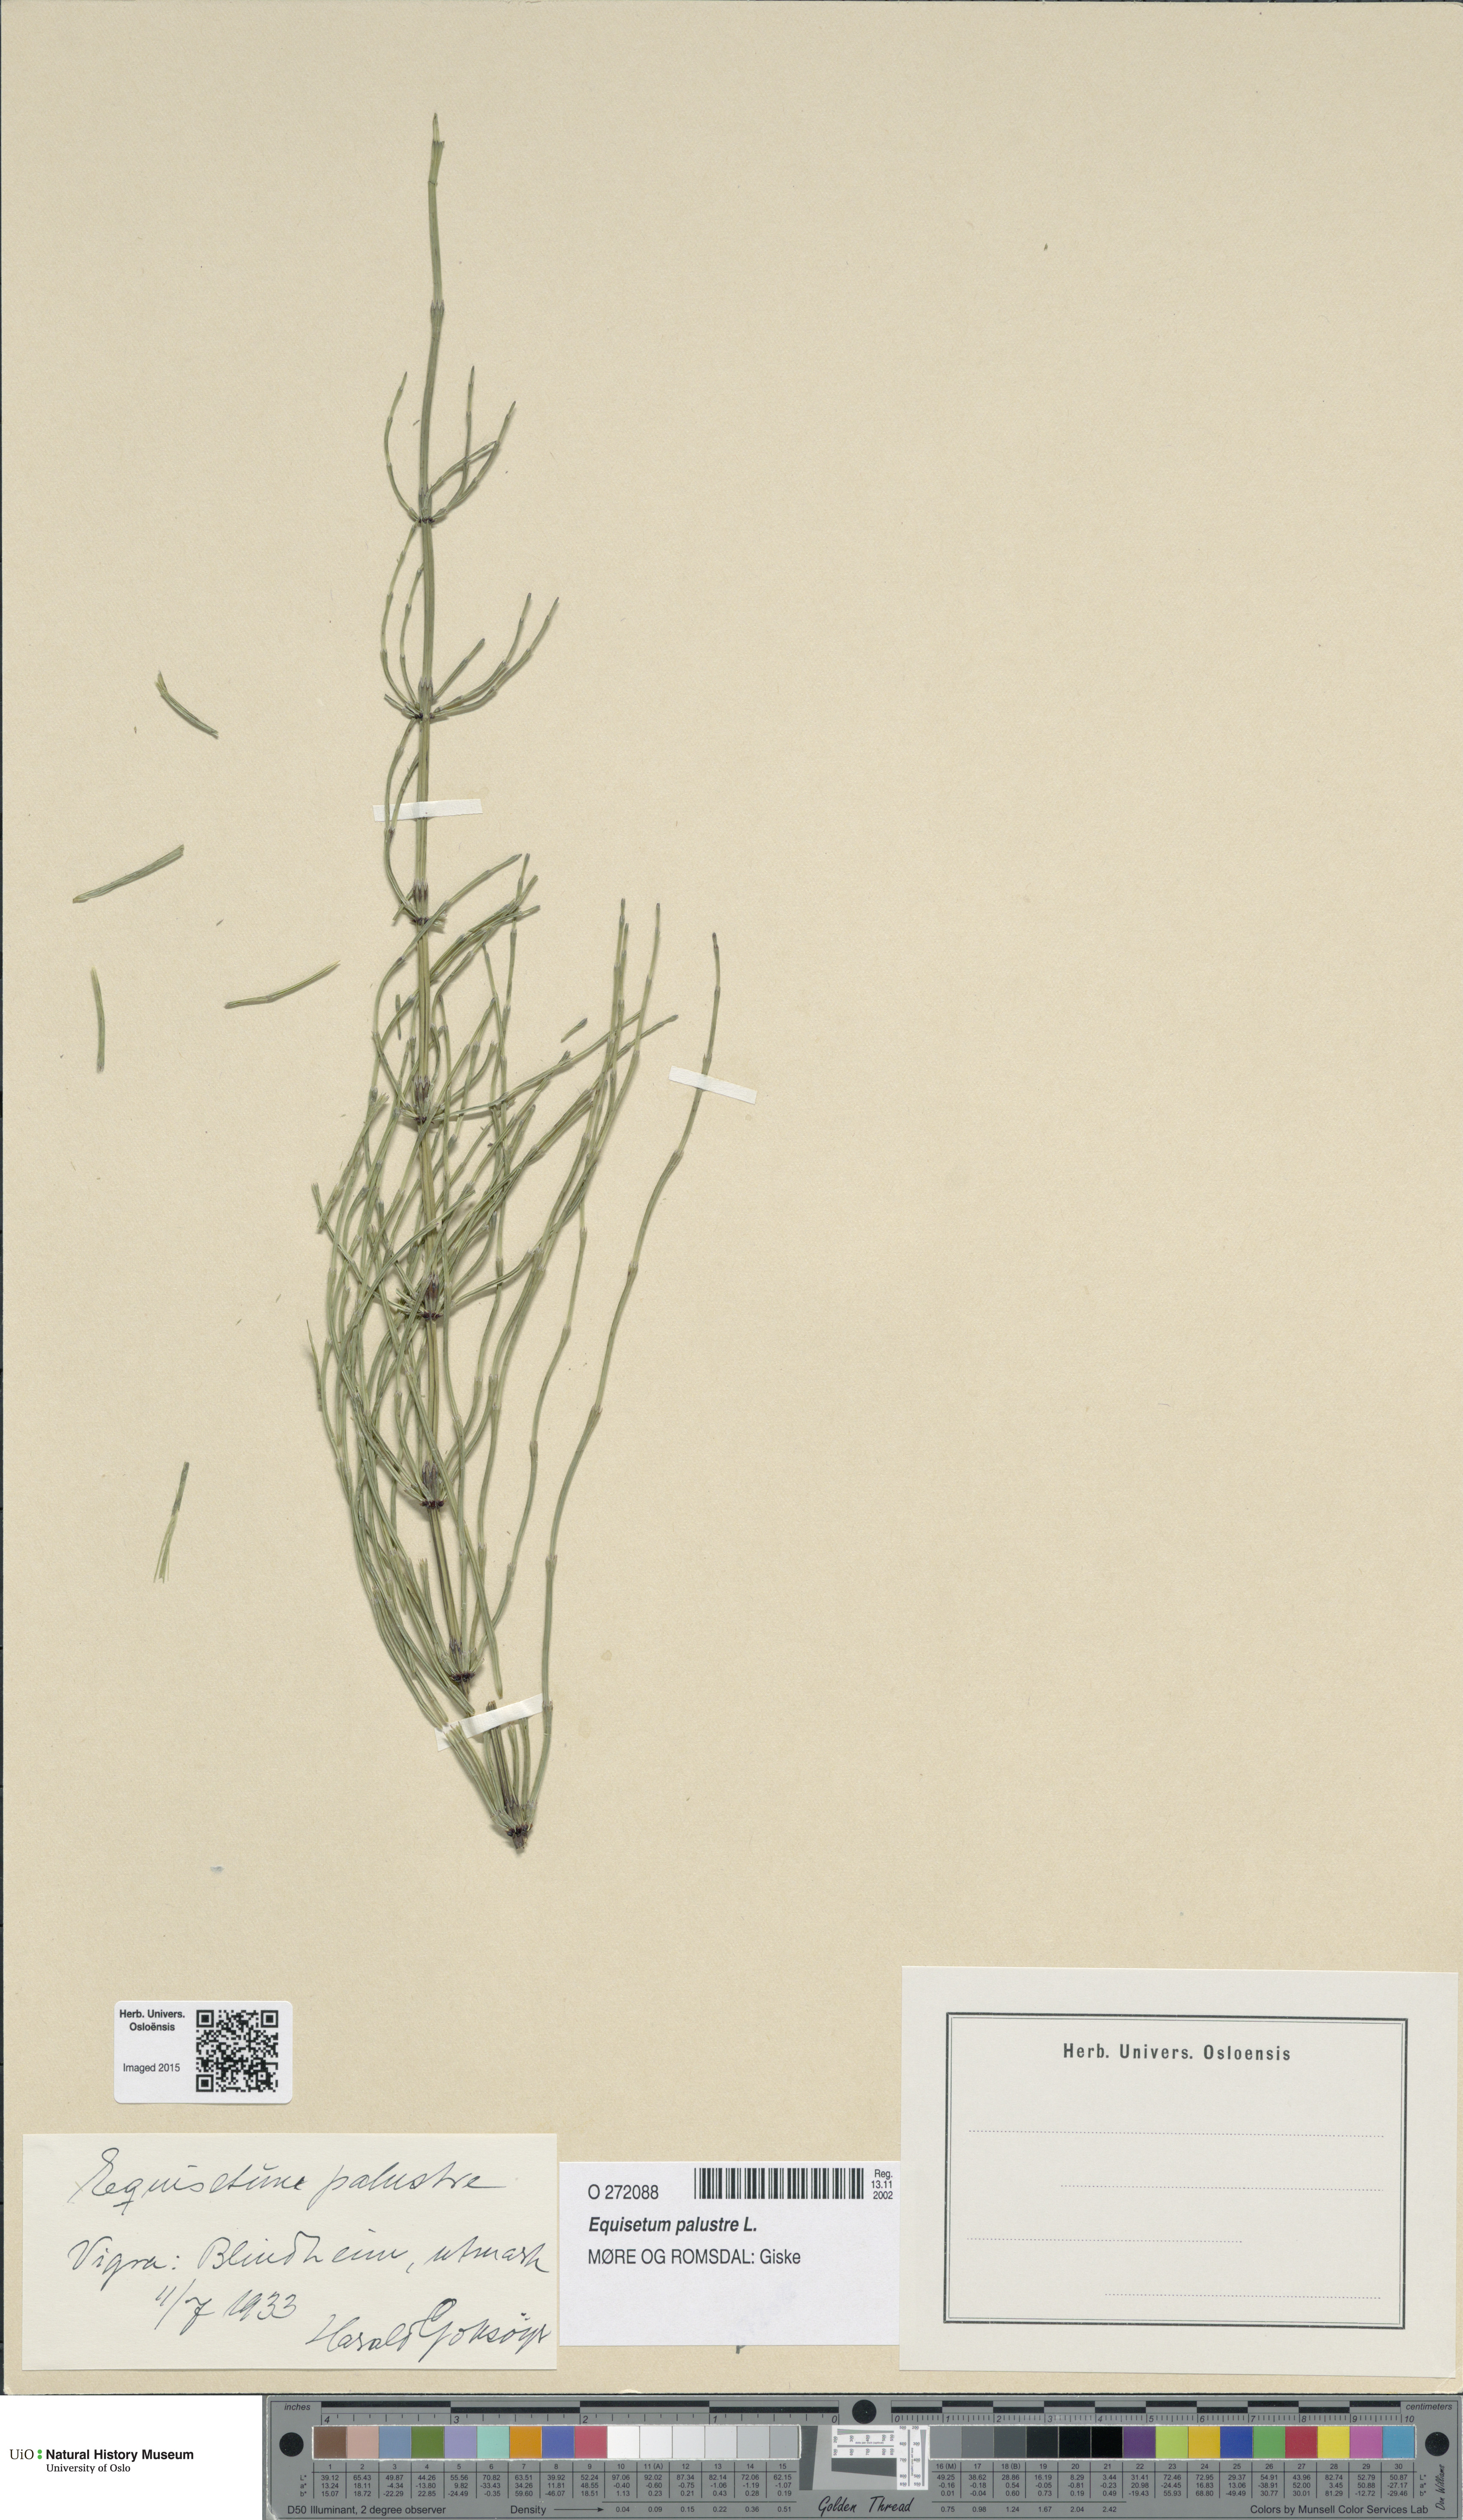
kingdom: Plantae
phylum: Tracheophyta
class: Polypodiopsida
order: Equisetales
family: Equisetaceae
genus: Equisetum
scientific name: Equisetum palustre
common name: Marsh horsetail
